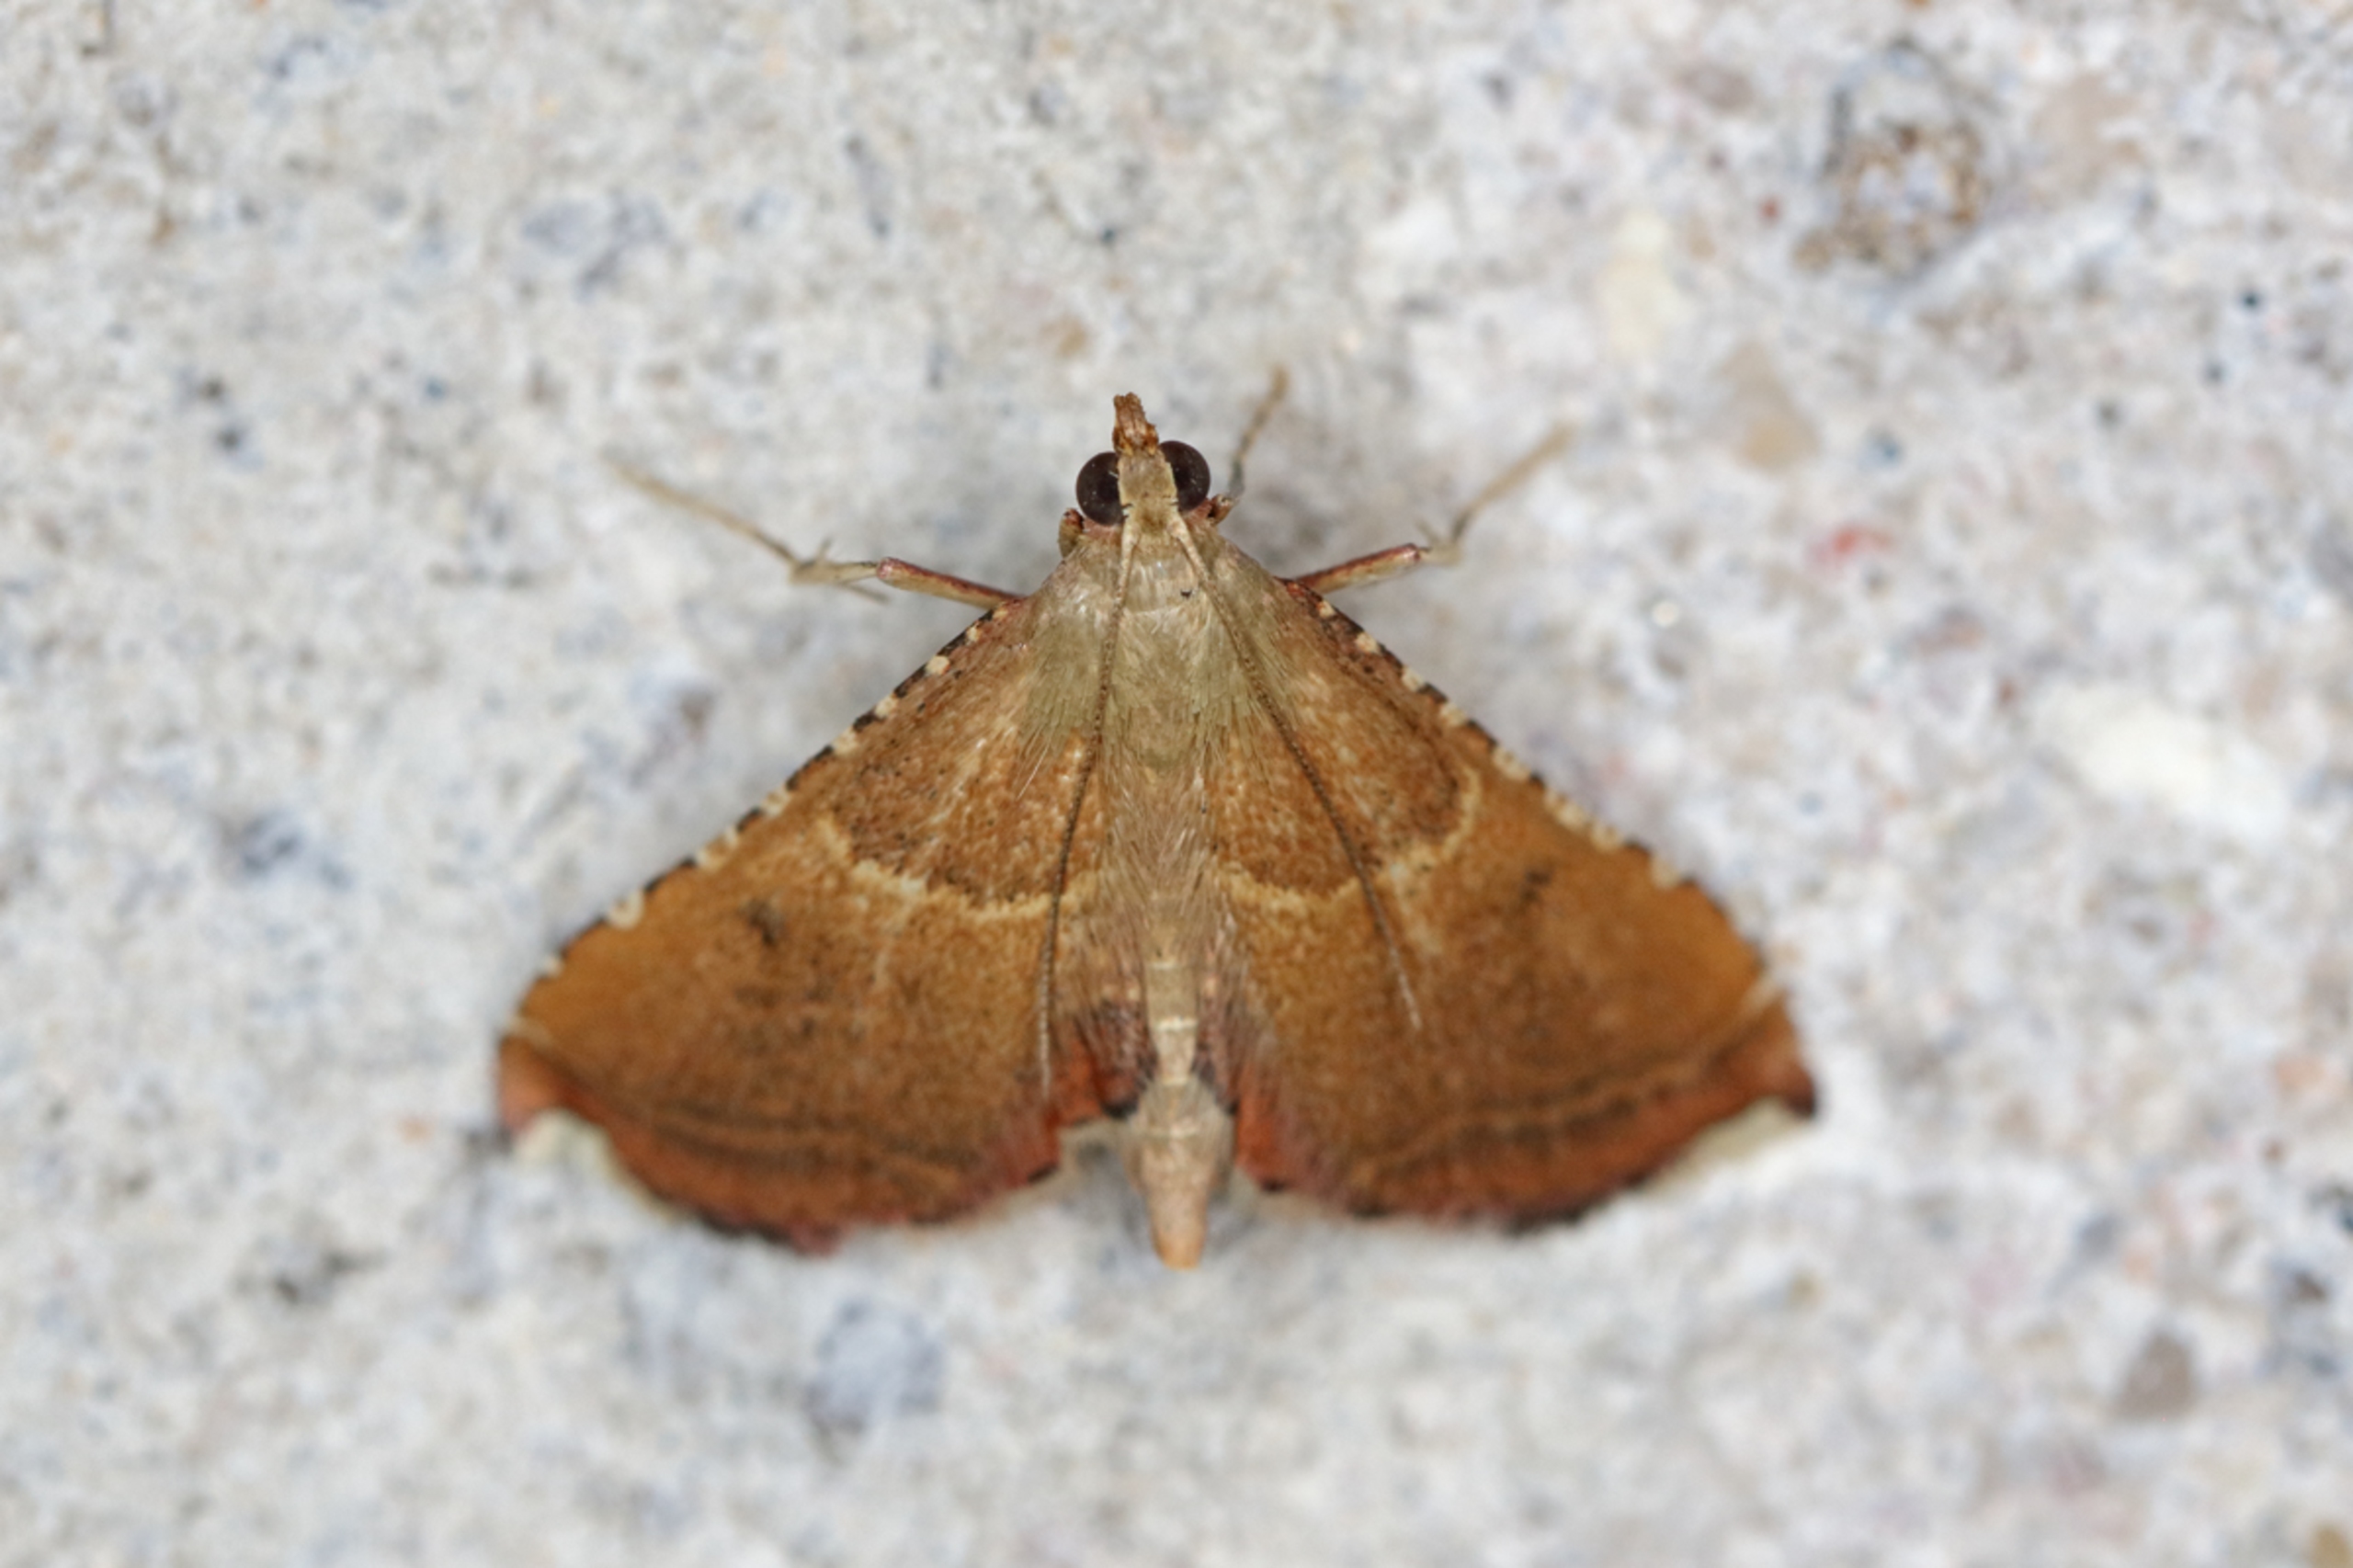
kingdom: Animalia
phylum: Arthropoda
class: Insecta
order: Lepidoptera
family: Pyralidae
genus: Endotricha
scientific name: Endotricha flammealis
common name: Løvkrathalvmøl
